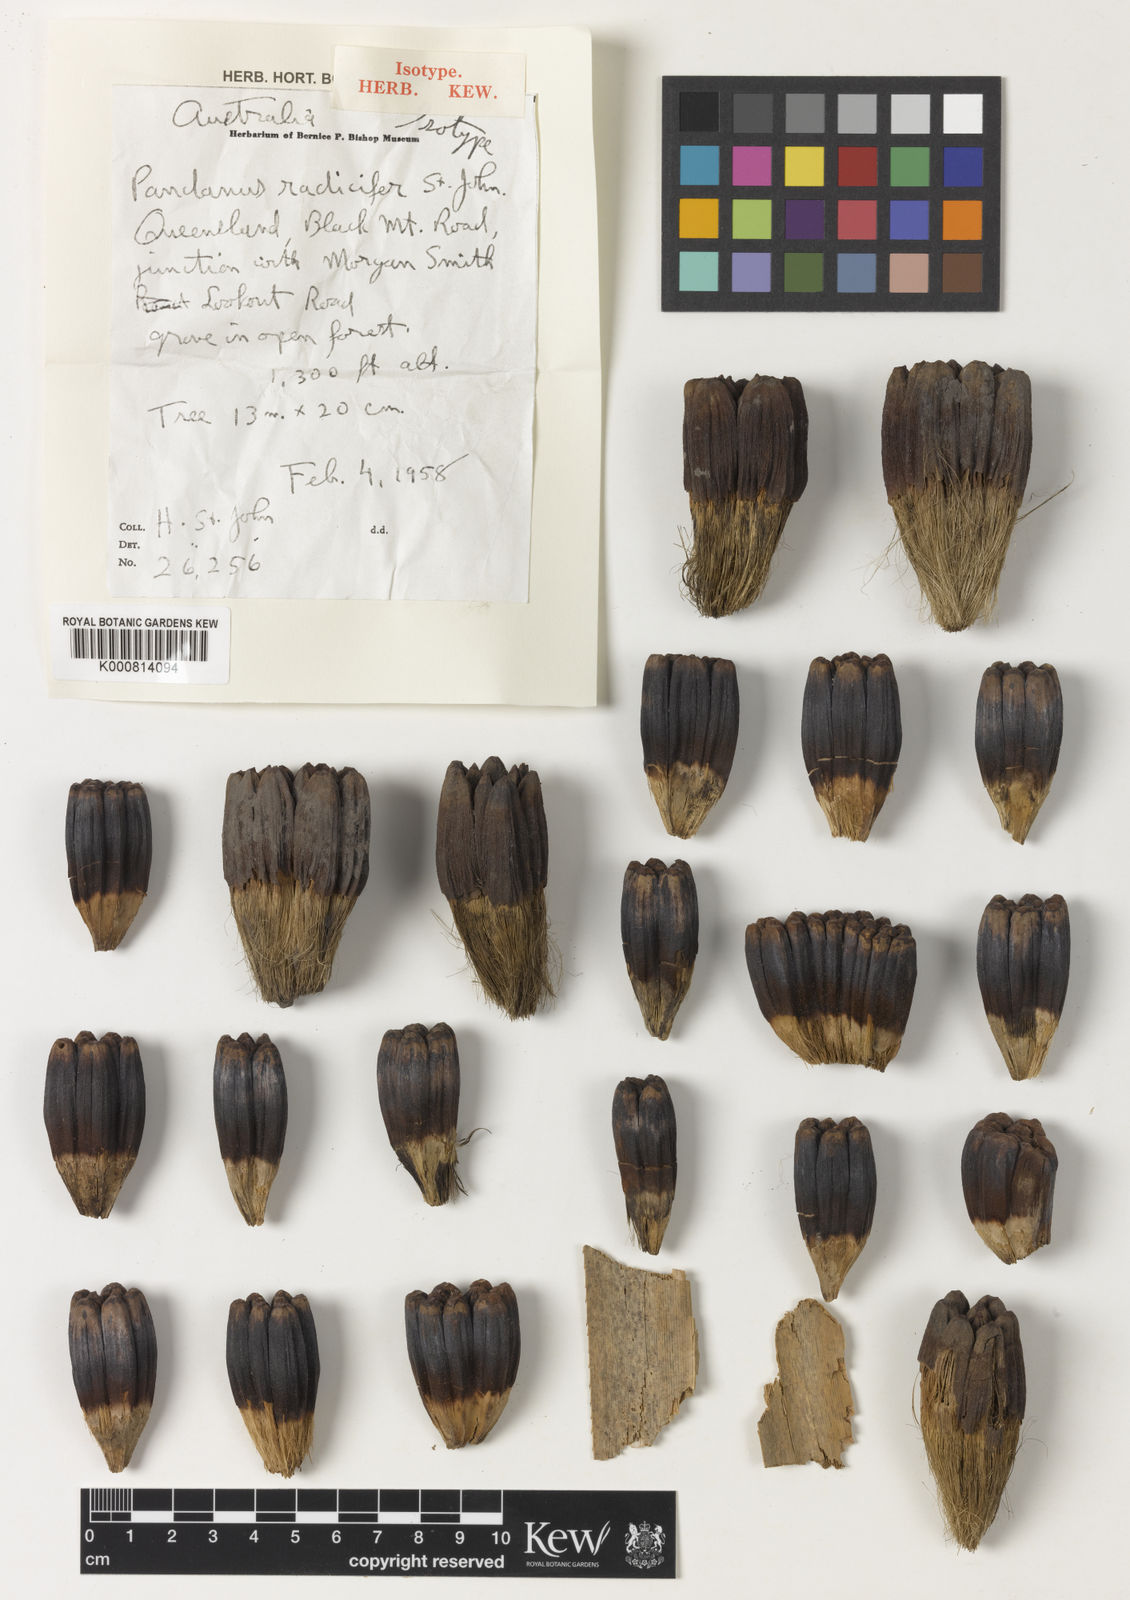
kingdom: Plantae
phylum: Tracheophyta
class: Liliopsida
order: Pandanales
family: Pandanaceae
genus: Pandanus
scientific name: Pandanus
